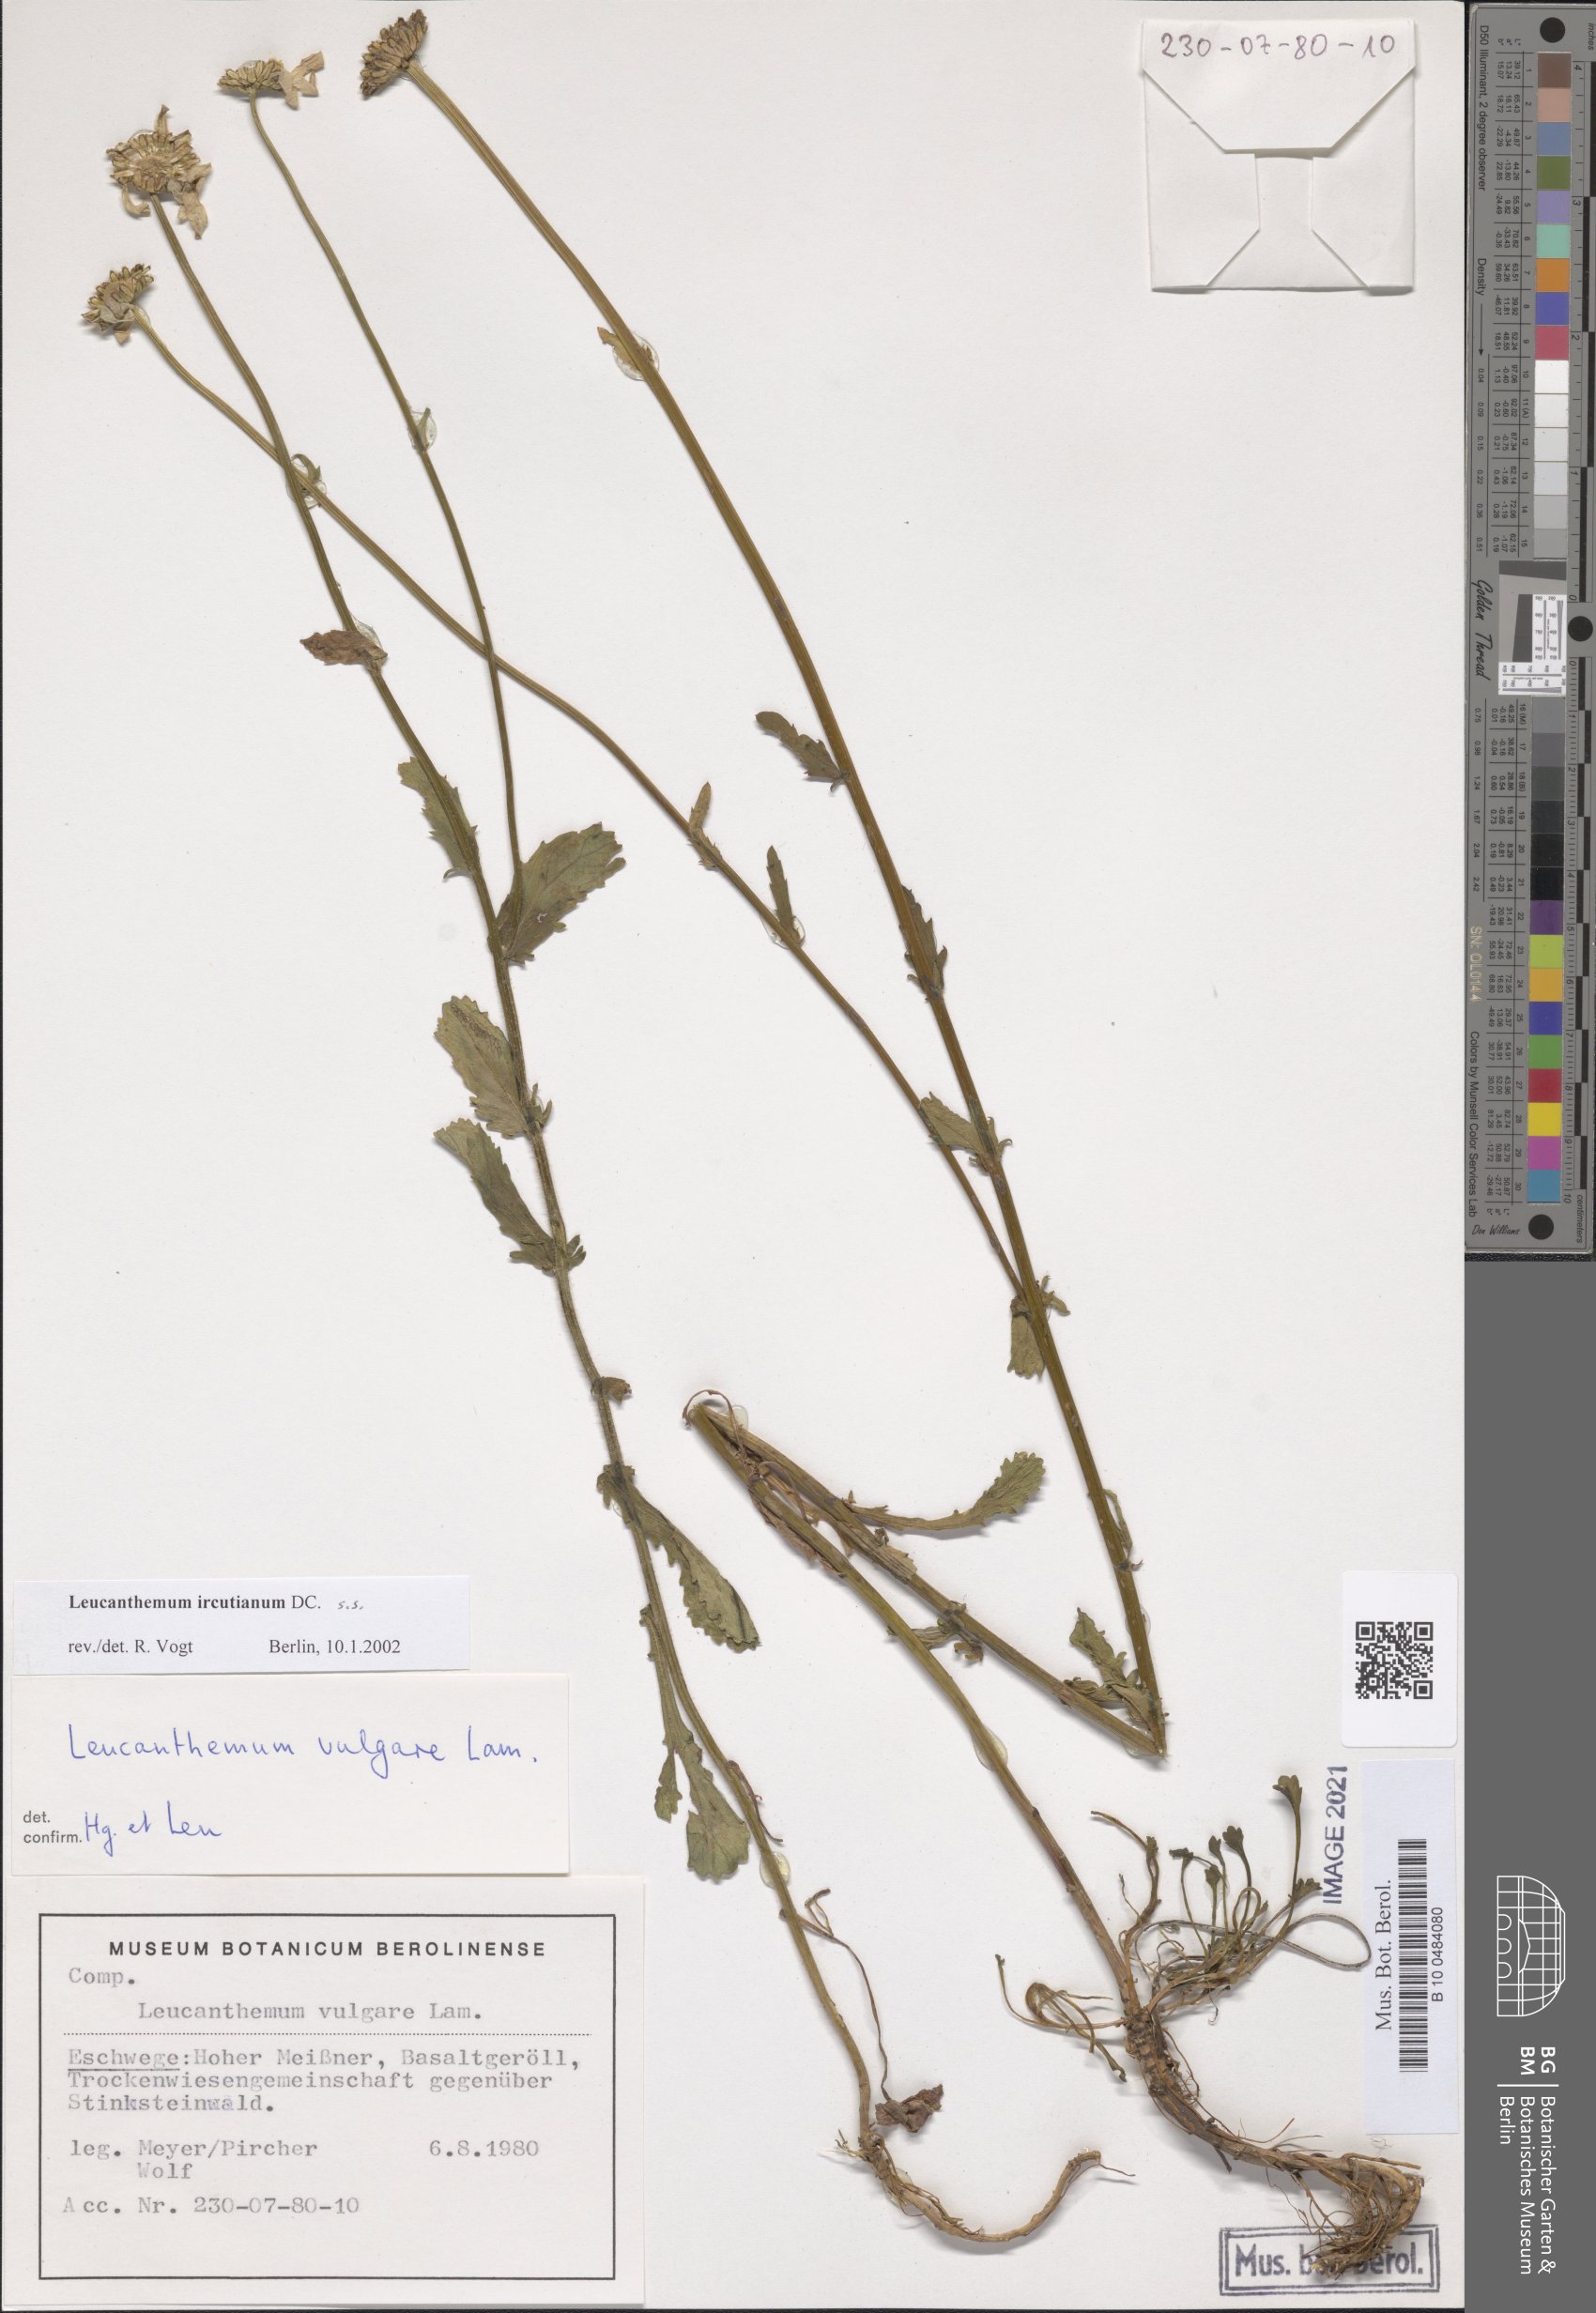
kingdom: Plantae
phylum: Tracheophyta
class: Magnoliopsida
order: Asterales
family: Asteraceae
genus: Leucanthemum
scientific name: Leucanthemum ircutianum
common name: Daisy
